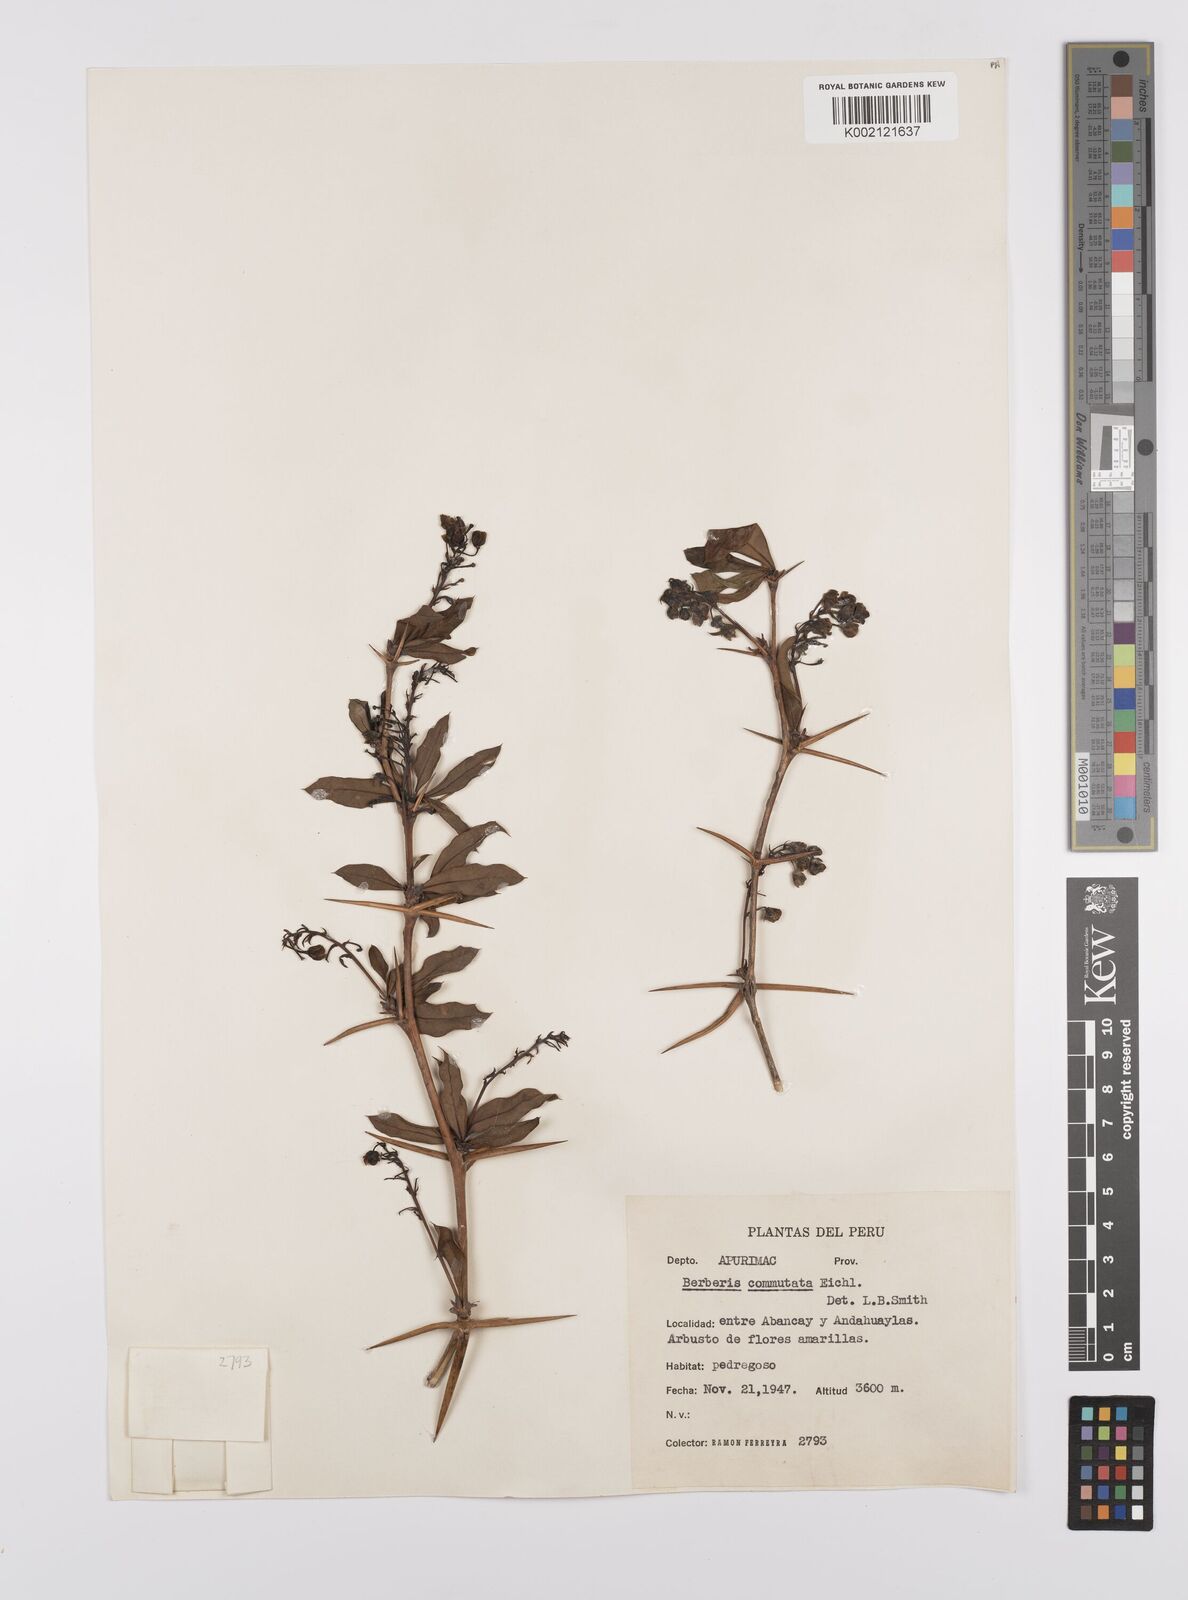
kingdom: Plantae
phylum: Tracheophyta
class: Magnoliopsida
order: Ranunculales
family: Berberidaceae
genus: Berberis
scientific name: Berberis commutata
